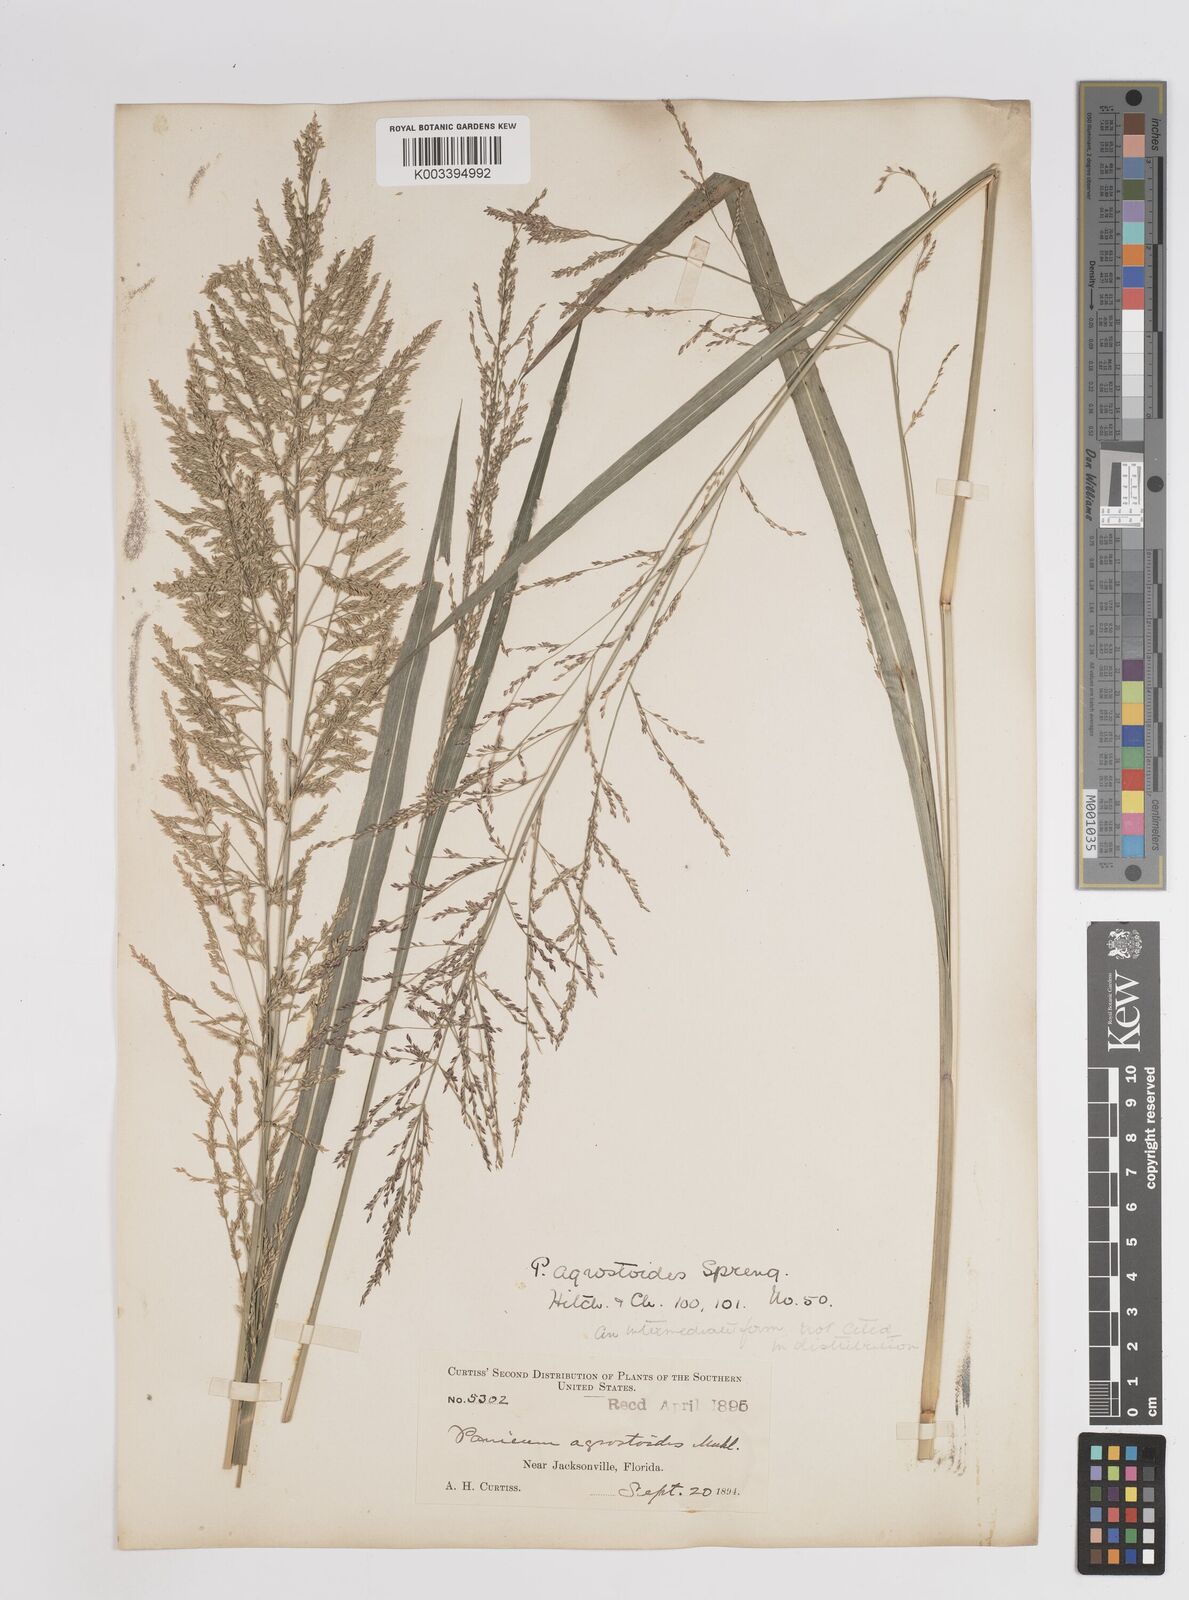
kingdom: Plantae
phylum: Tracheophyta
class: Liliopsida
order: Poales
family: Poaceae
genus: Coleataenia
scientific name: Coleataenia rigidula
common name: Redtop panicgrass
